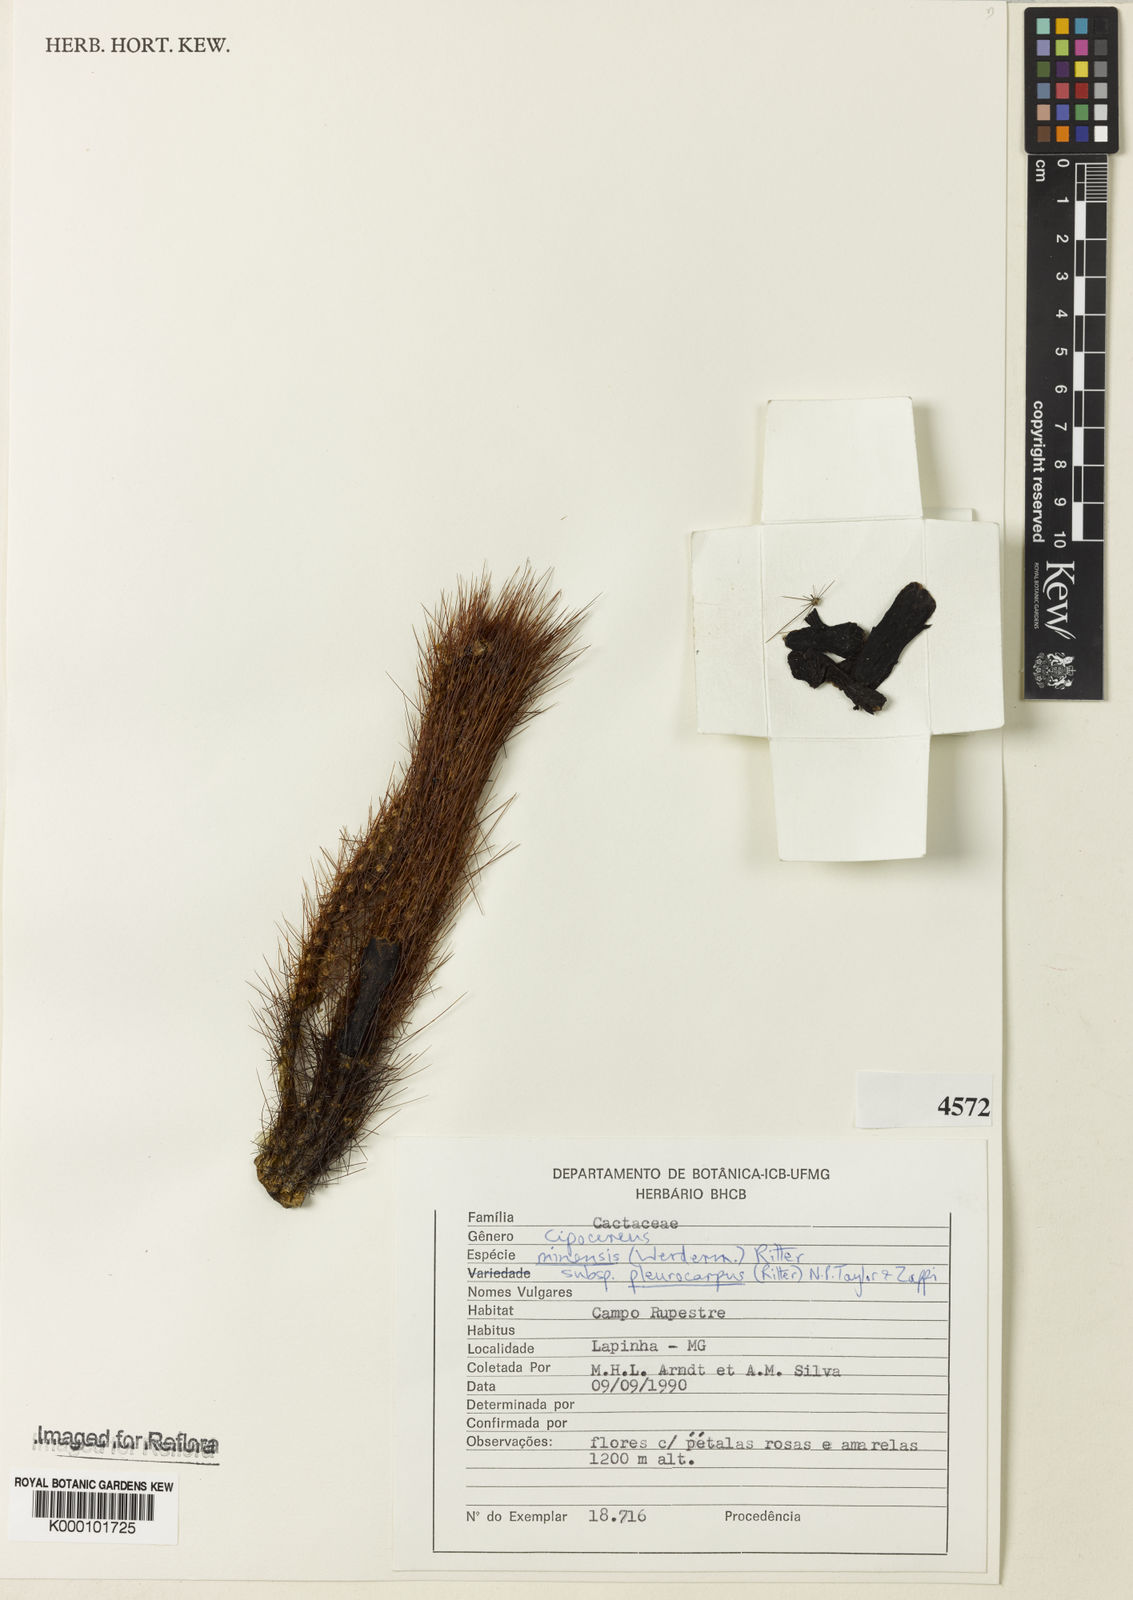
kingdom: Plantae
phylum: Tracheophyta
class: Magnoliopsida
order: Caryophyllales
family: Cactaceae
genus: Cipocereus
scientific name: Cipocereus minensis
